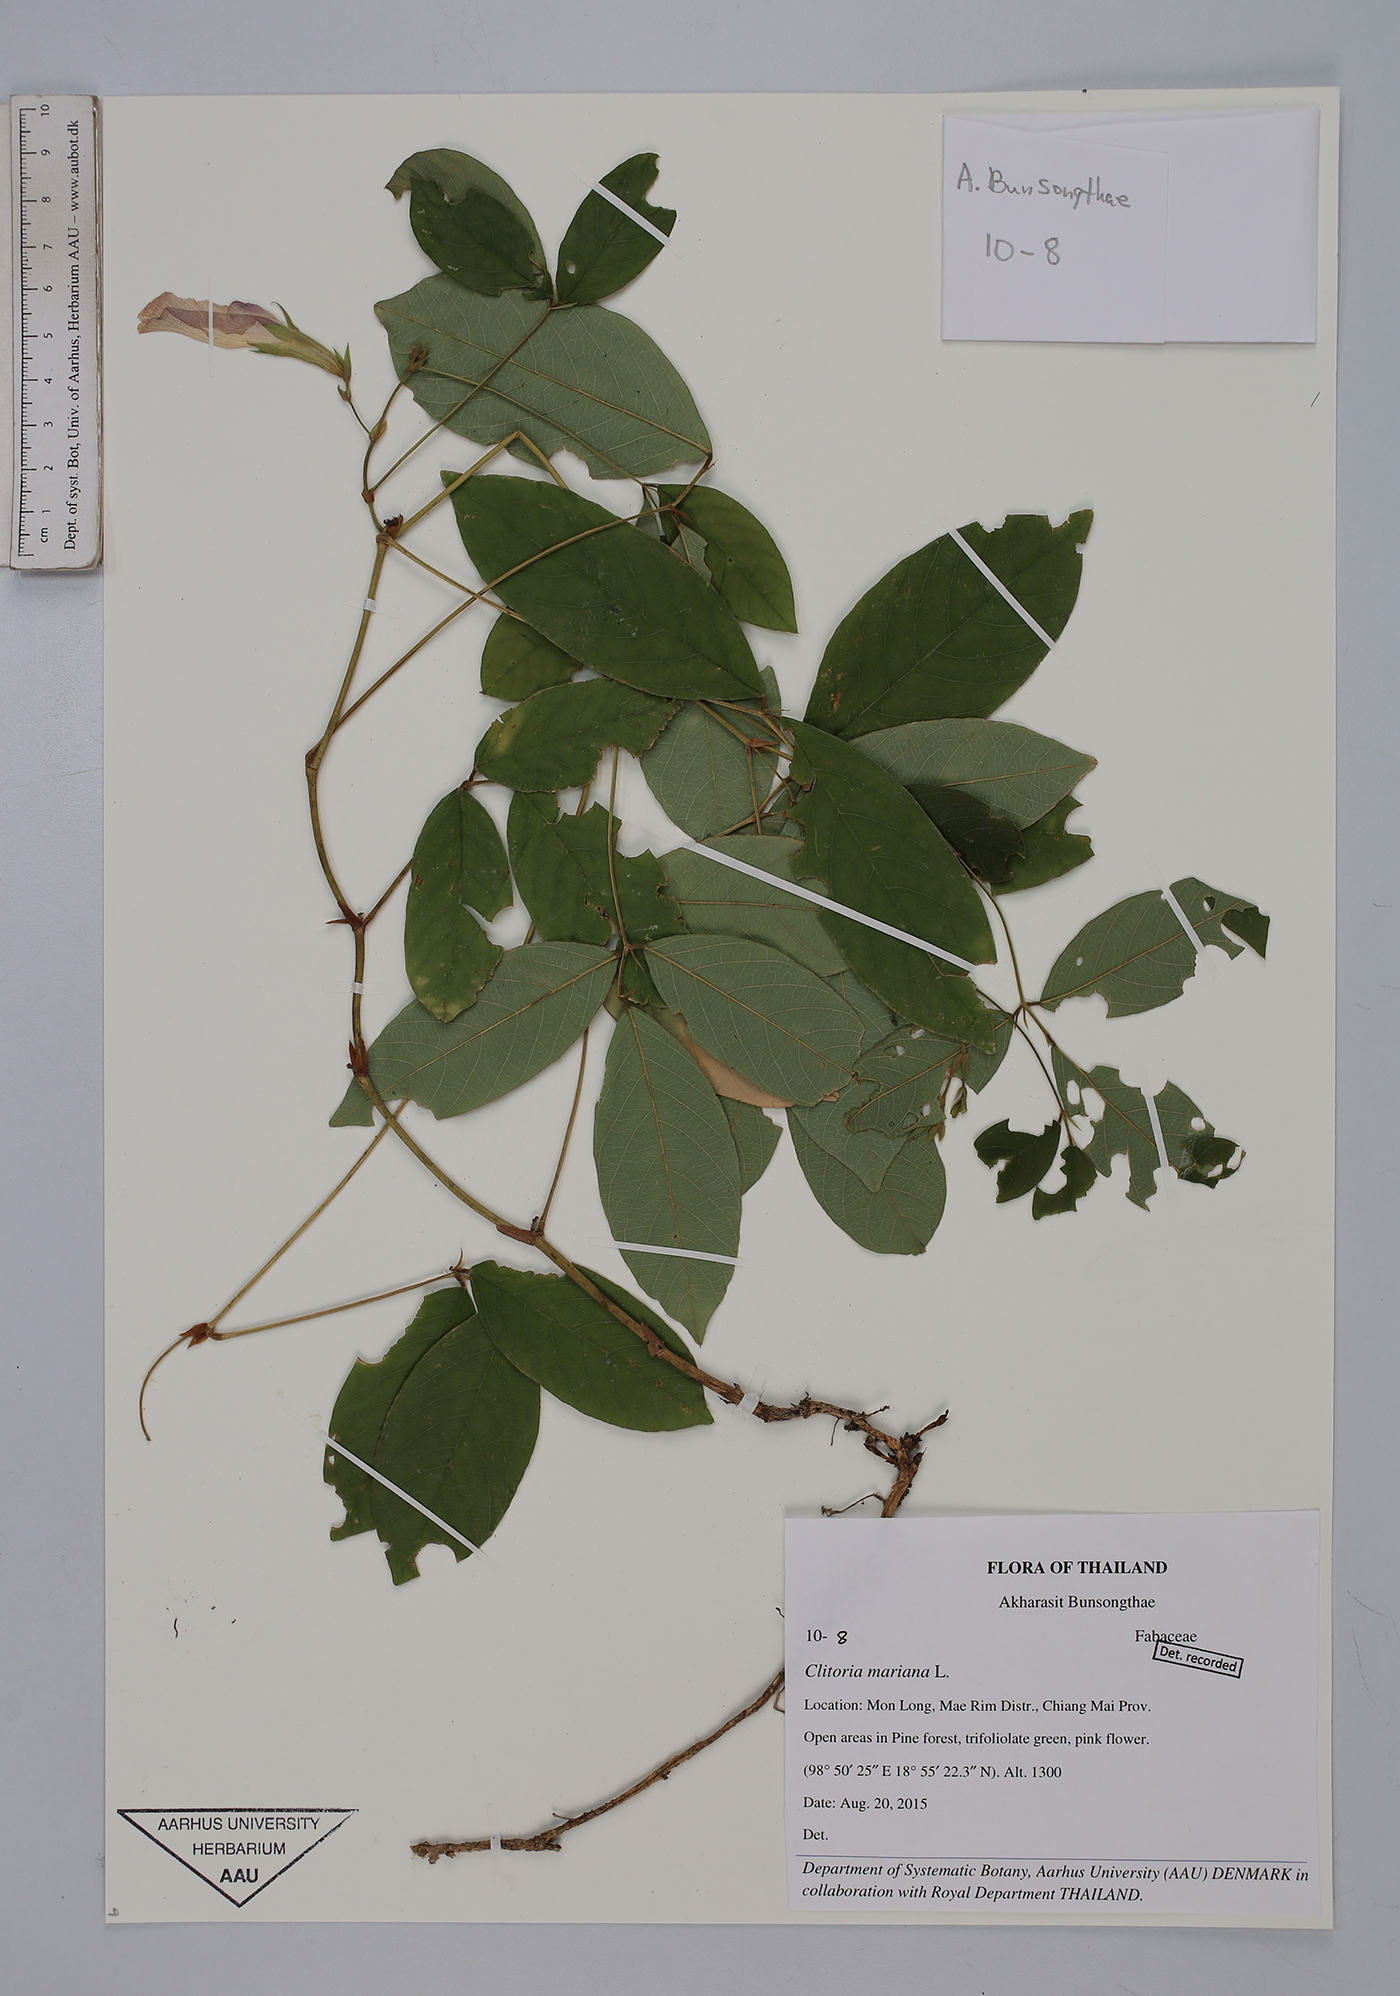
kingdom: Plantae
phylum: Tracheophyta
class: Magnoliopsida
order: Fabales
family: Fabaceae
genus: Clitoria
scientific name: Clitoria mariana
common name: Butterfly-pea
